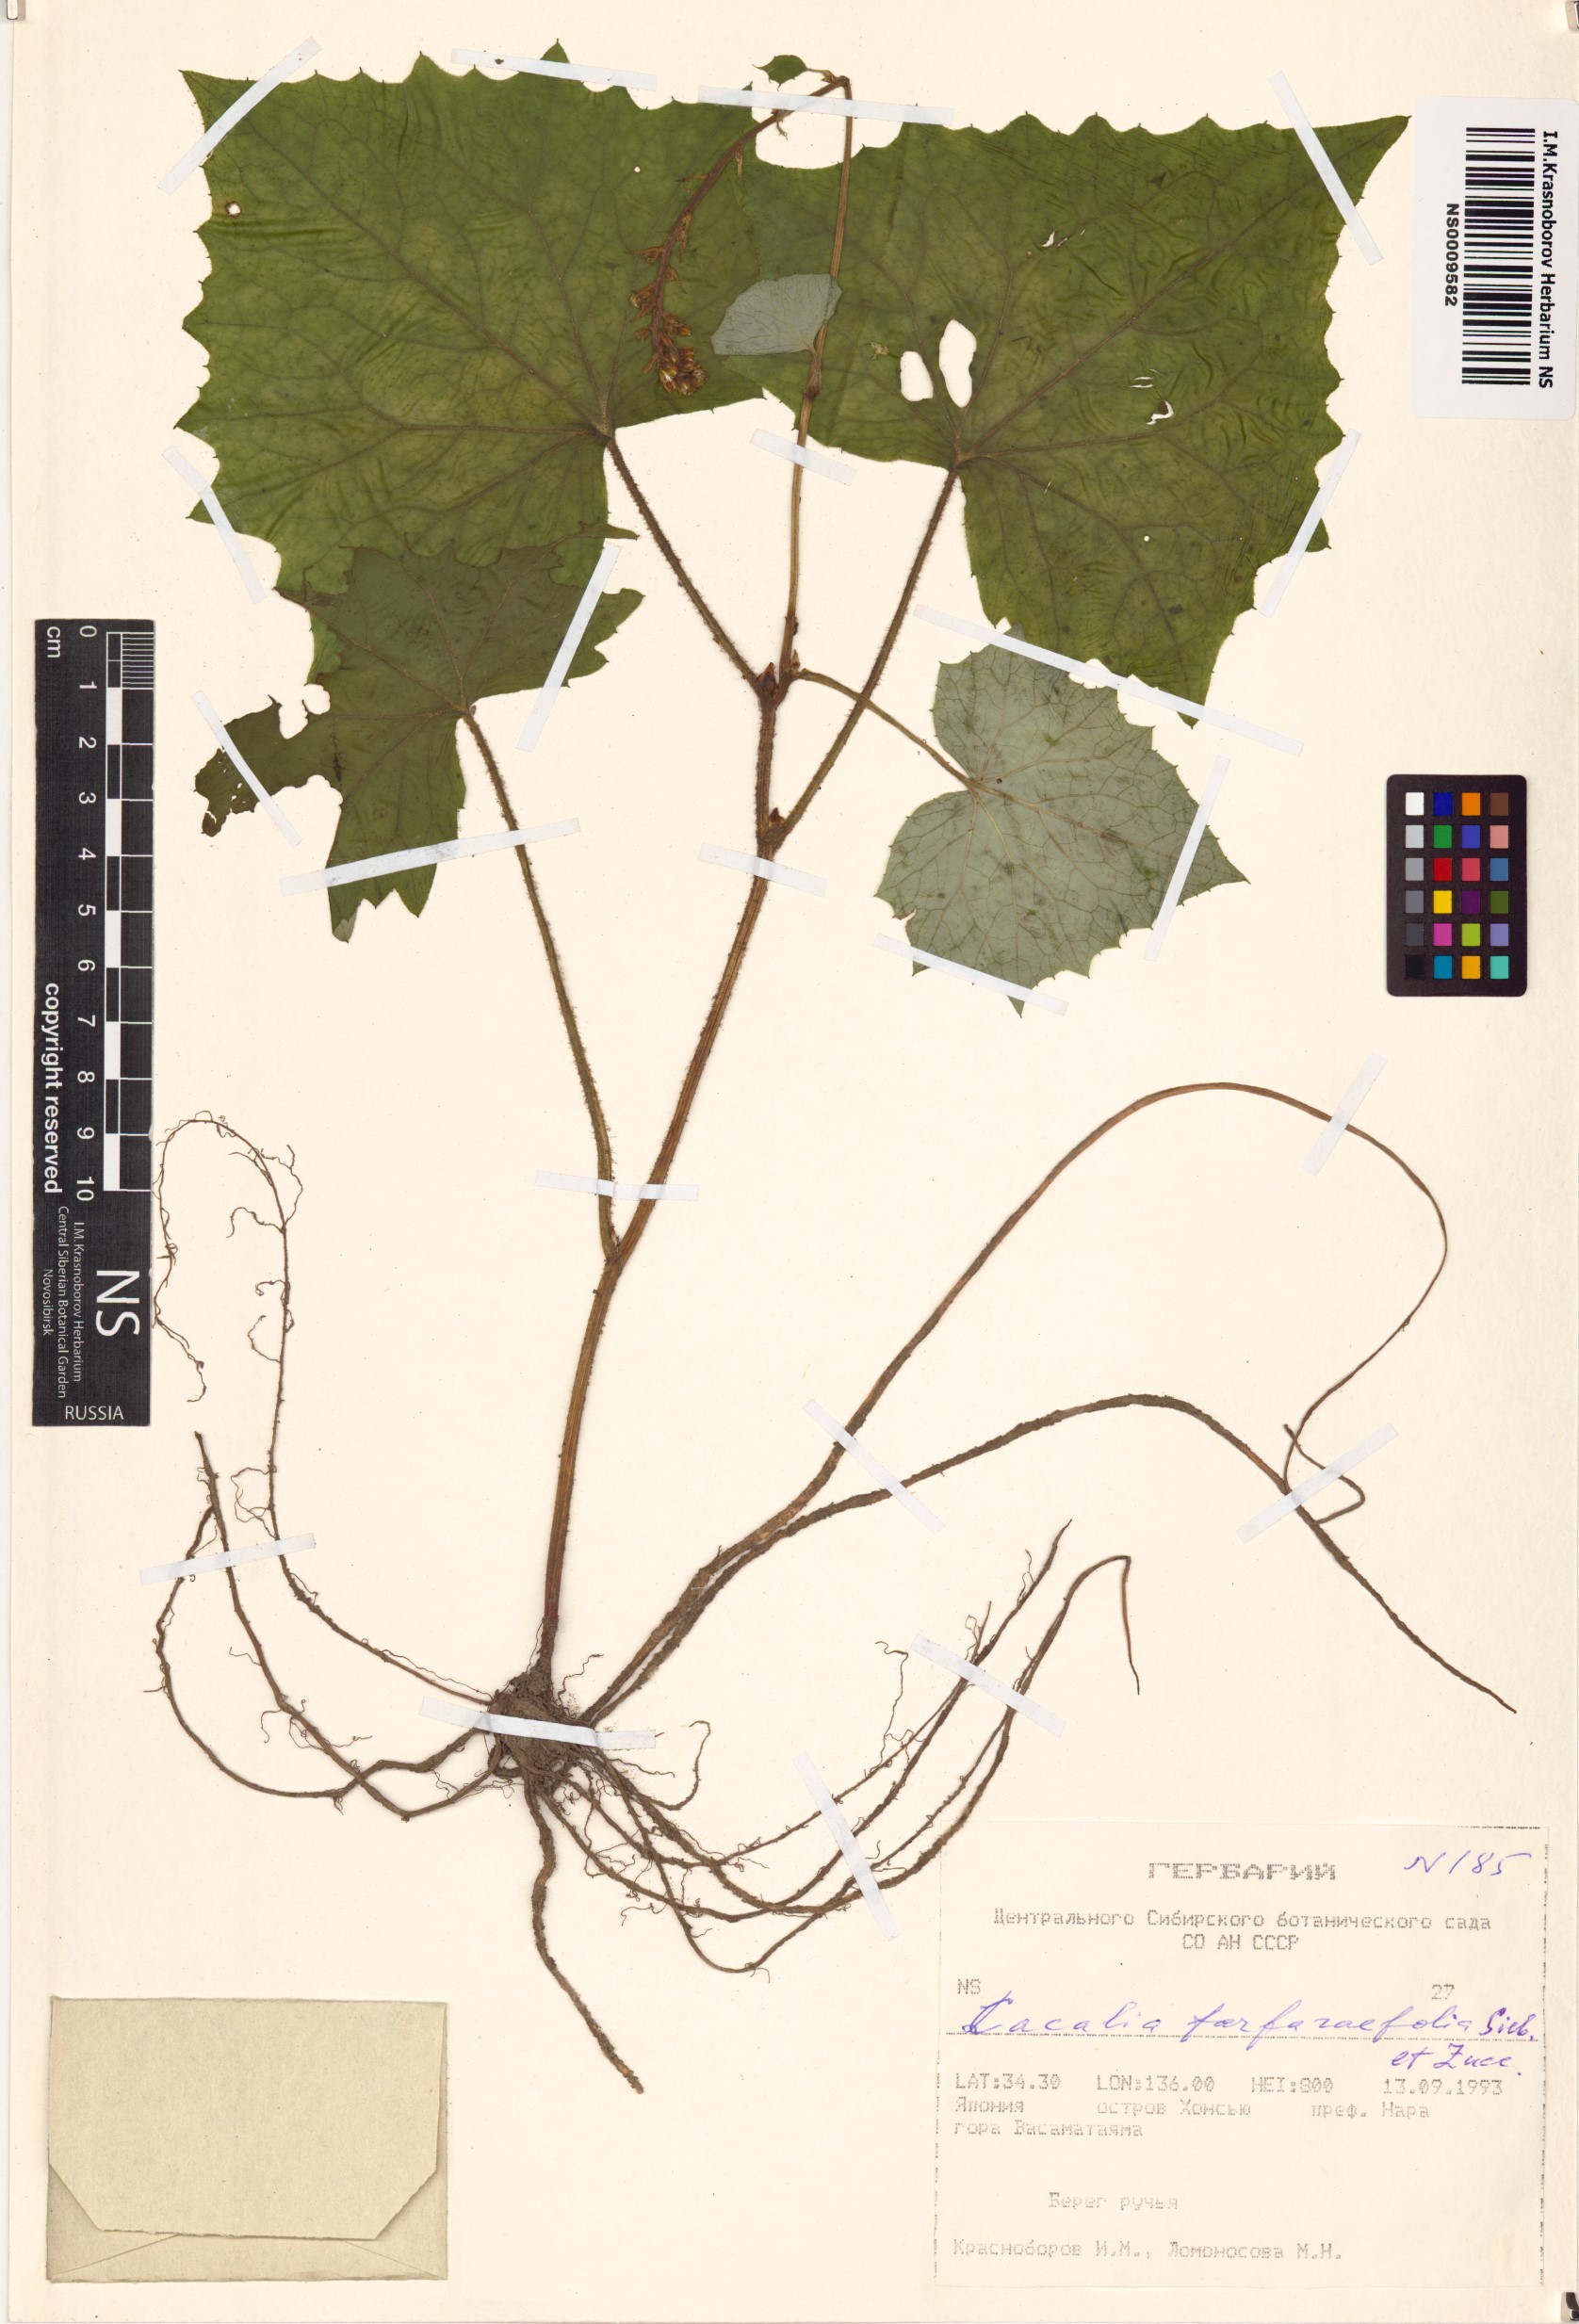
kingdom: Plantae
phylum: Tracheophyta
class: Magnoliopsida
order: Asterales
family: Asteraceae
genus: Parasenecio
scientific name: Parasenecio farfarifolius
